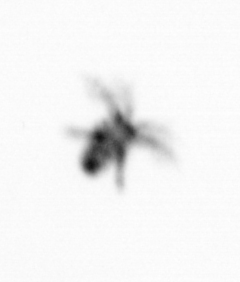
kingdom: Animalia
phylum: Arthropoda
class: Copepoda
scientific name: Copepoda
